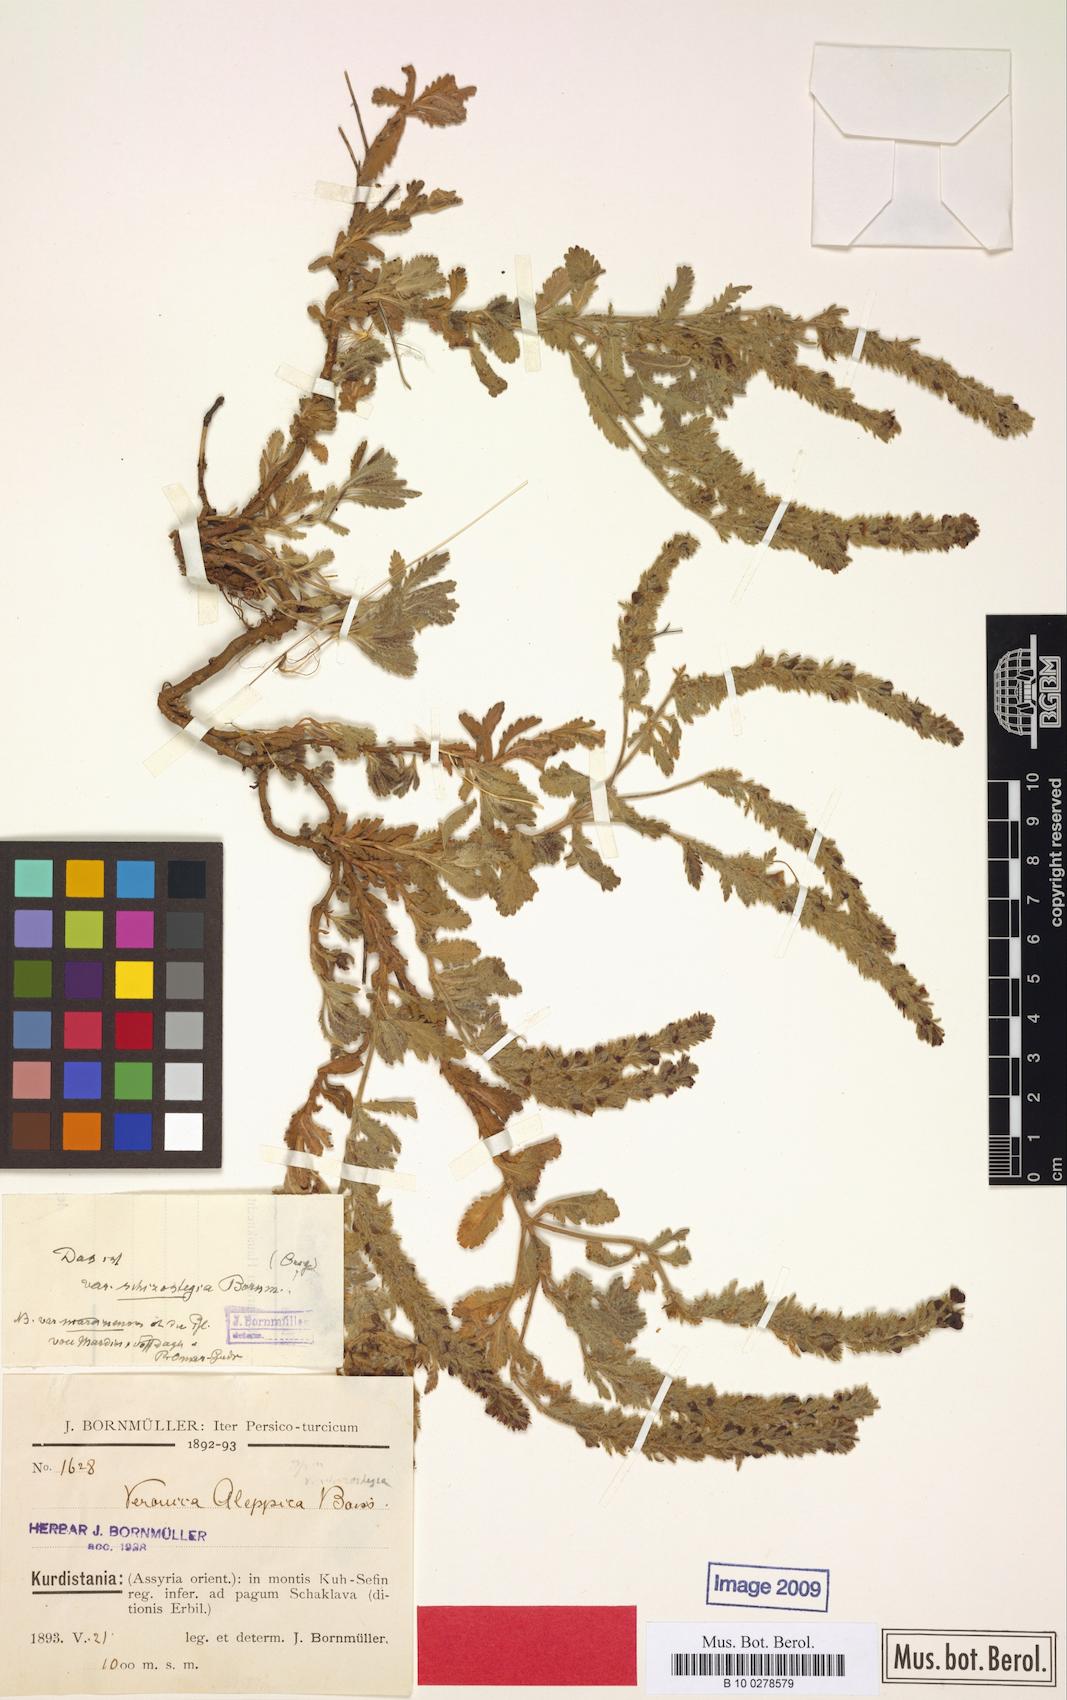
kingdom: Plantae
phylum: Tracheophyta
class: Magnoliopsida
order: Lamiales
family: Plantaginaceae
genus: Veronica
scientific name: Veronica macrostachya
